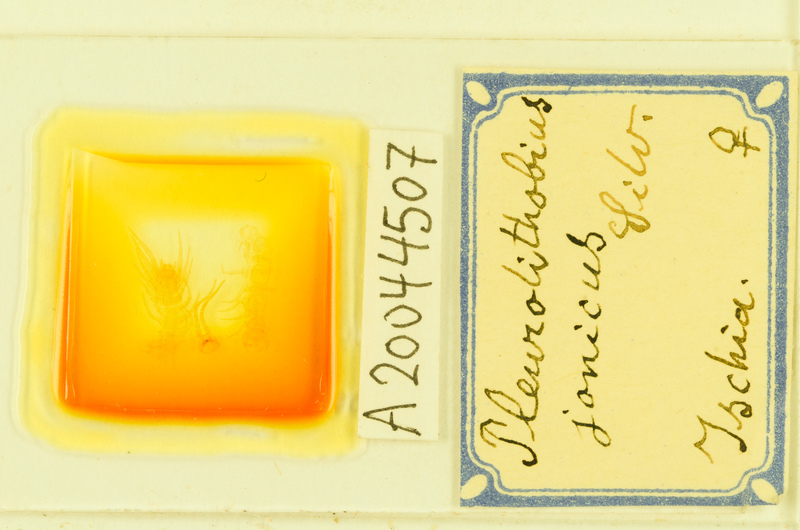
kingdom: Animalia
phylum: Arthropoda
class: Chilopoda
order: Lithobiomorpha
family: Lithobiidae
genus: Pleurolithobius
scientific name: Pleurolithobius
